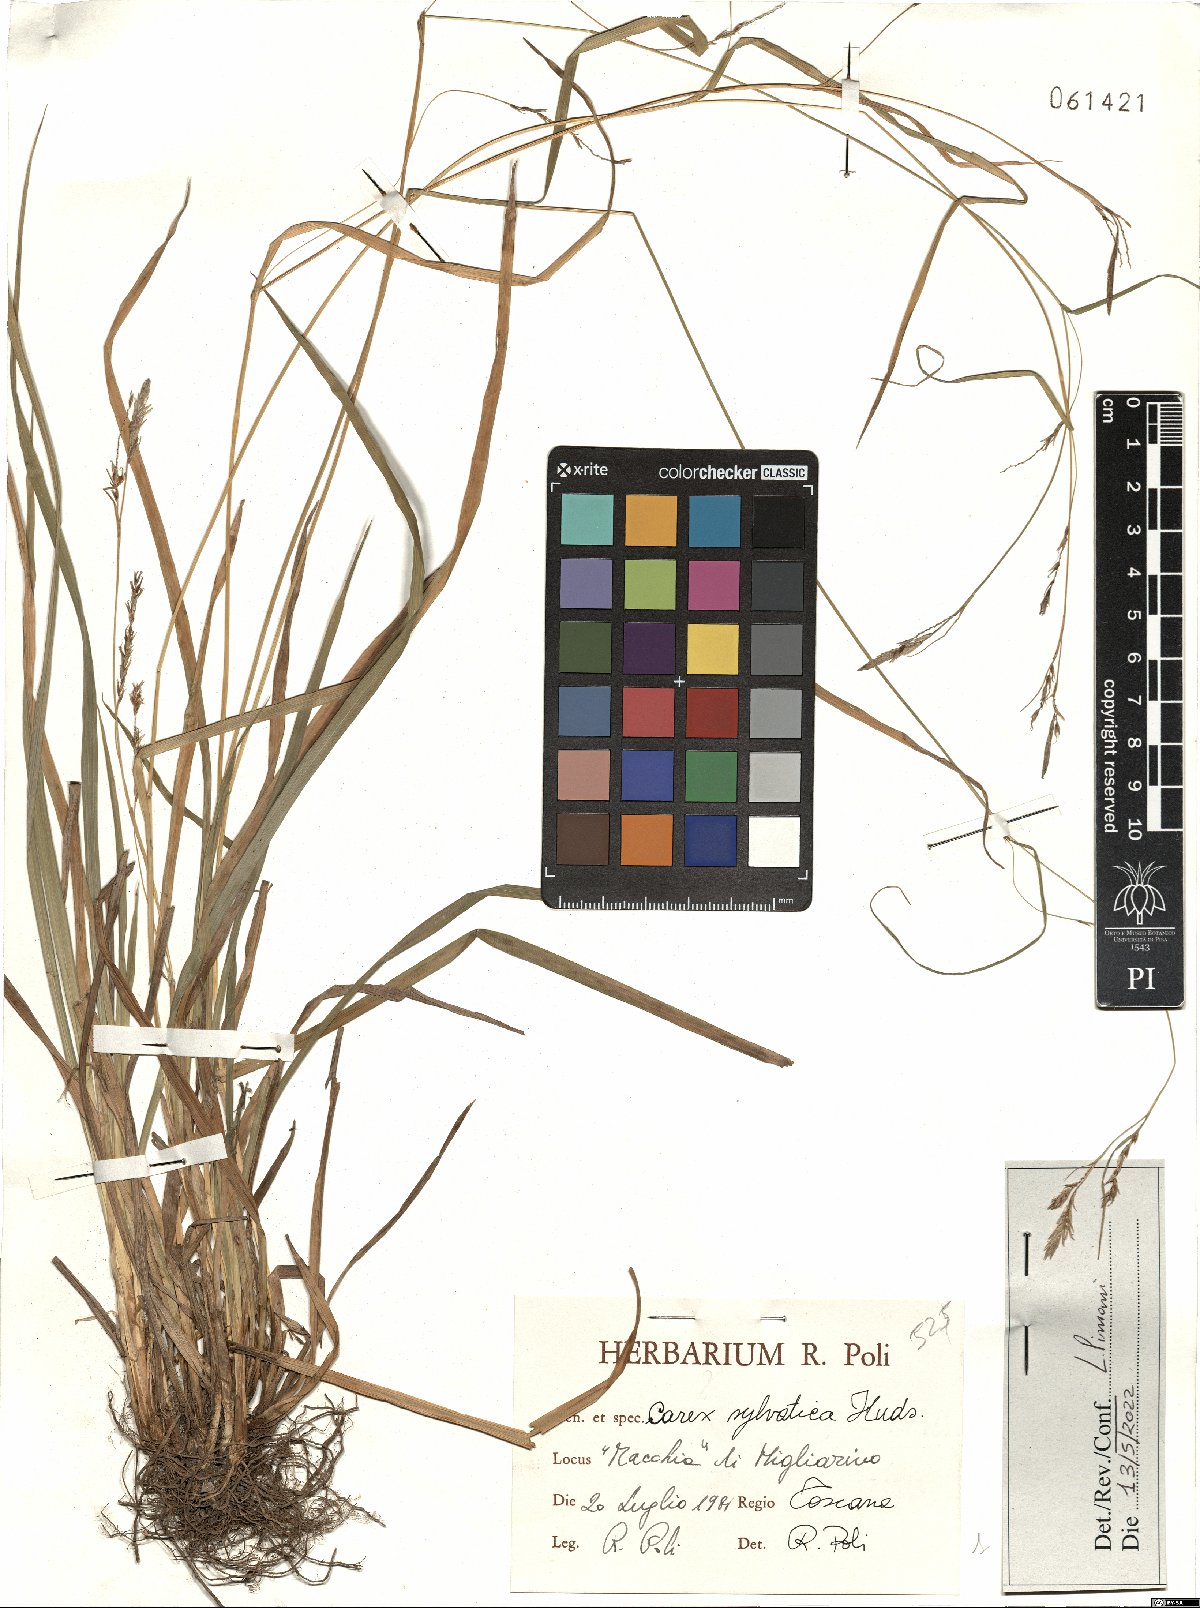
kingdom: Plantae
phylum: Tracheophyta
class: Liliopsida
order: Poales
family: Cyperaceae
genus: Carex
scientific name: Carex sylvatica
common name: Wood-sedge
